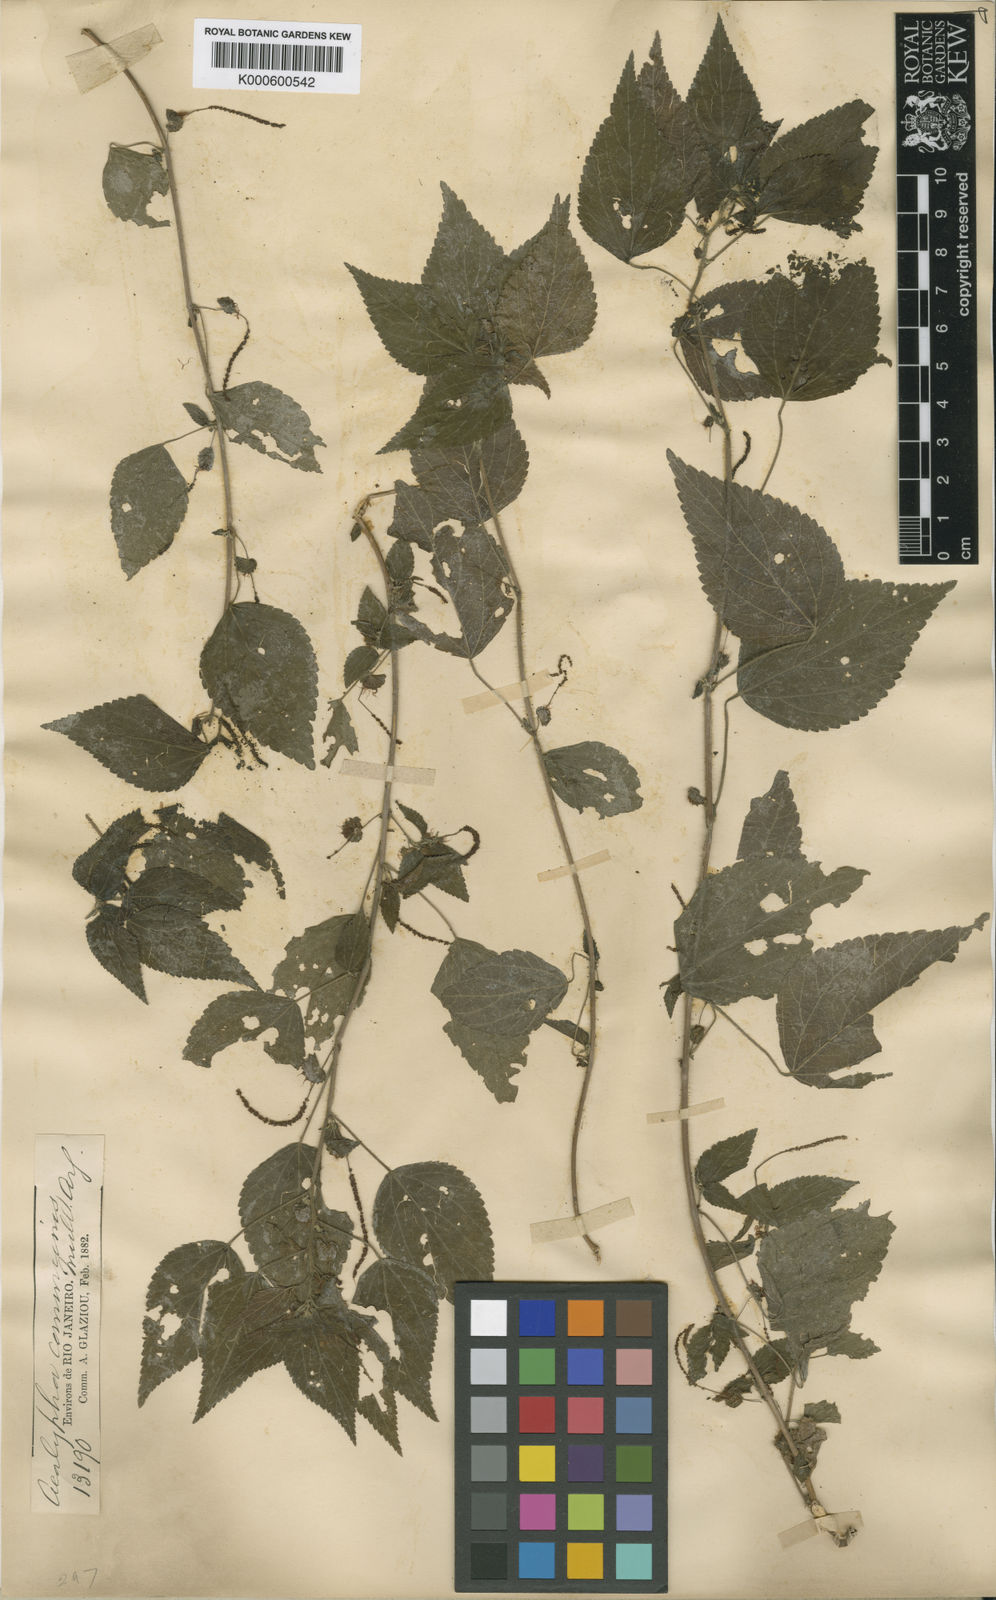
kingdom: Plantae
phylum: Tracheophyta
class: Magnoliopsida
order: Malpighiales
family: Euphorbiaceae
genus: Acalypha
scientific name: Acalypha macularis
